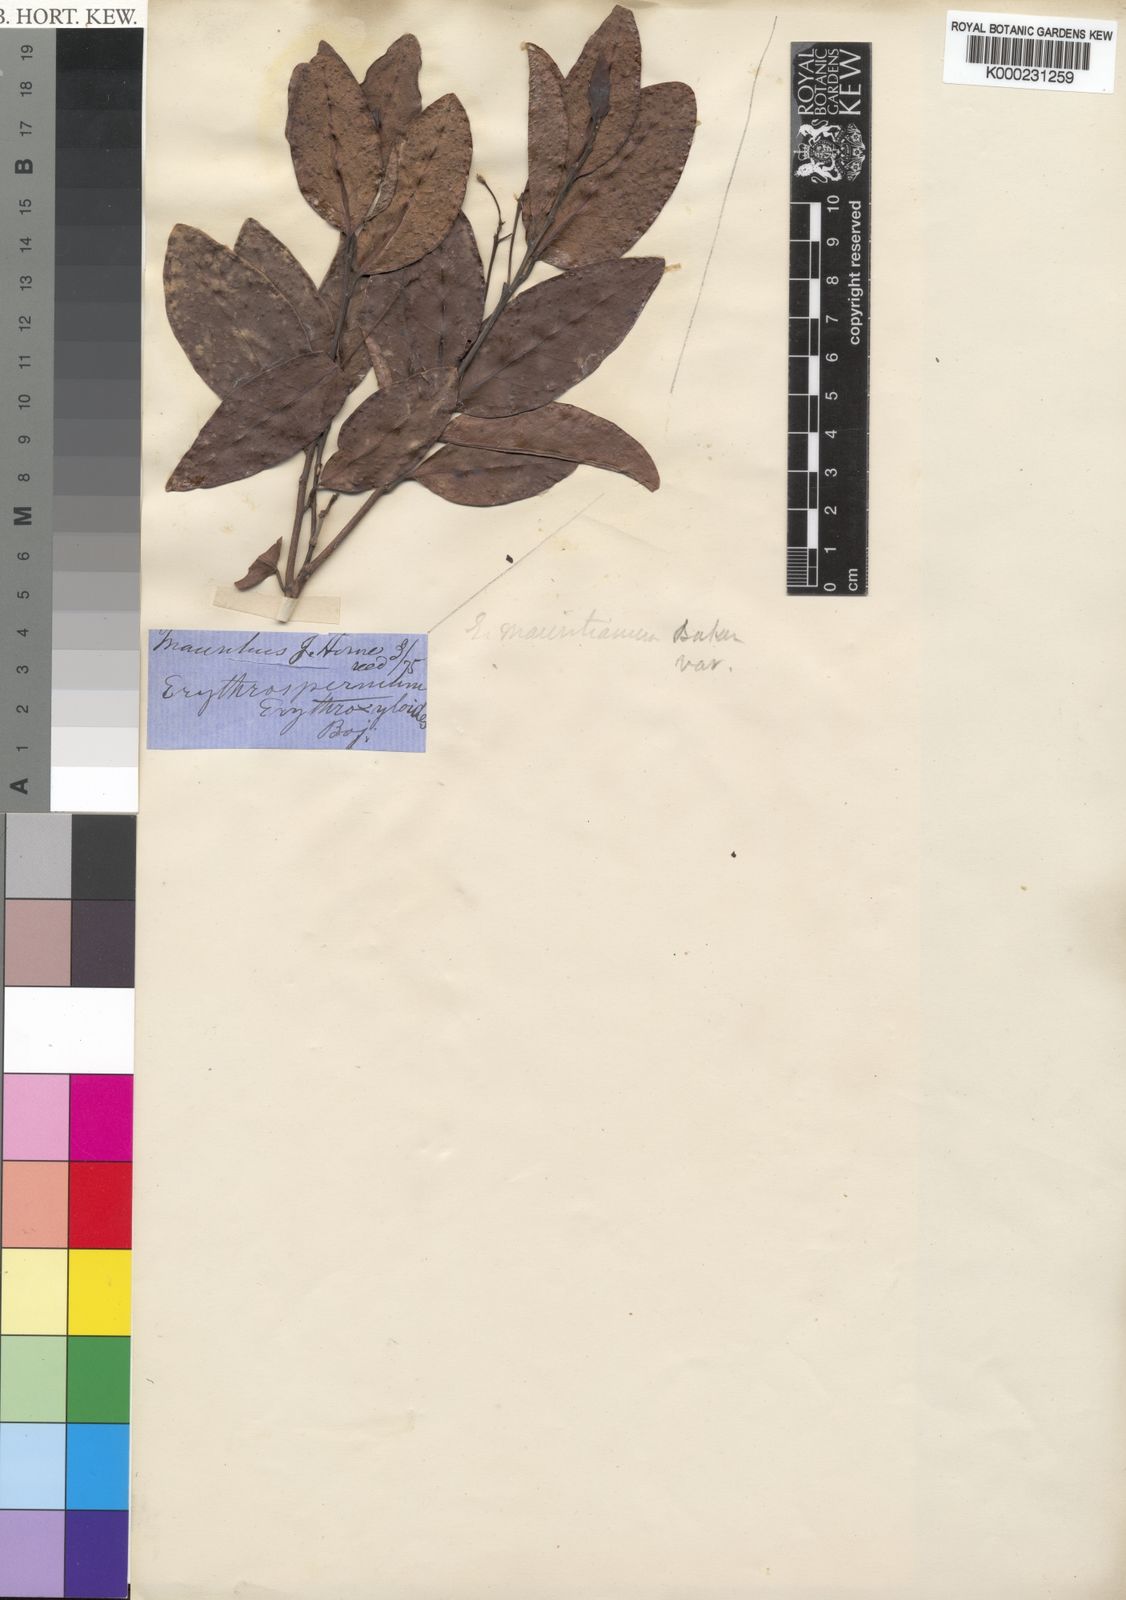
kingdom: Plantae
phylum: Tracheophyta
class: Magnoliopsida
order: Malpighiales
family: Achariaceae
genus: Erythrospermum
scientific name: Erythrospermum
